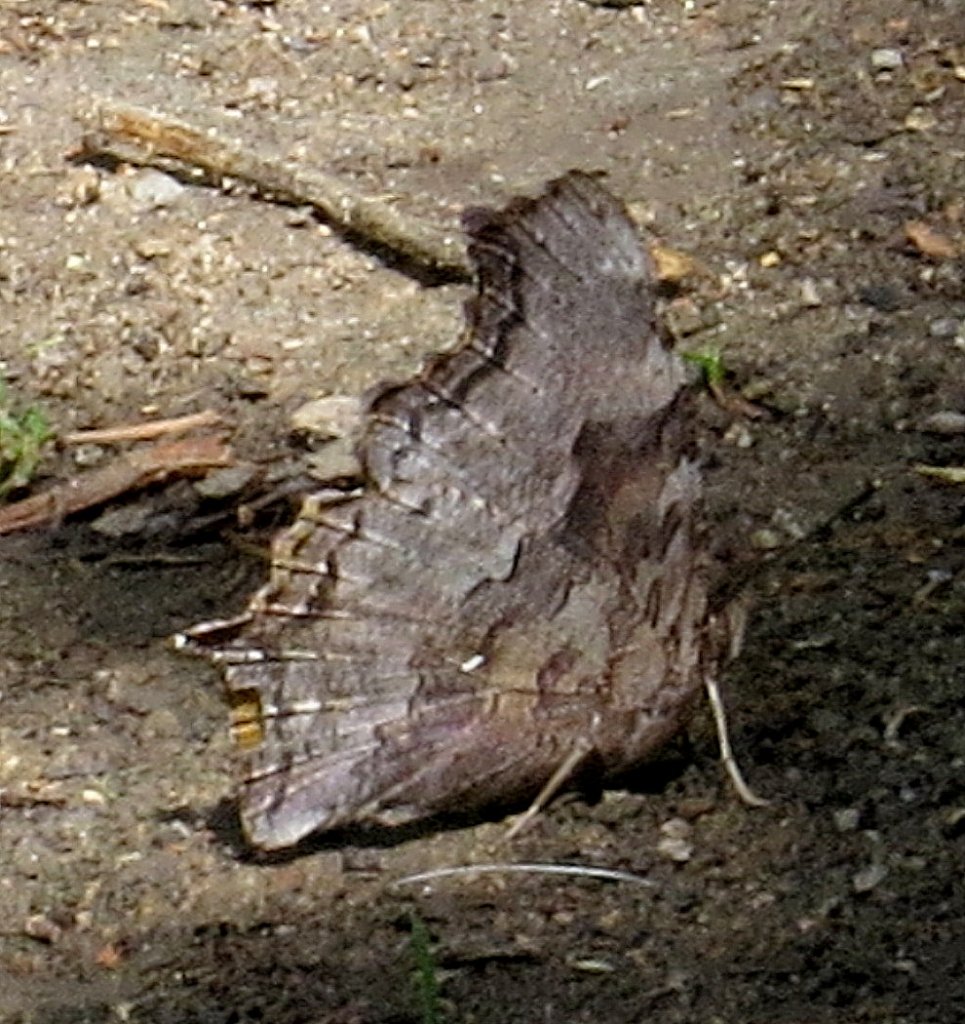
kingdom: Animalia
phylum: Arthropoda
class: Insecta
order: Lepidoptera
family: Nymphalidae
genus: Polygonia
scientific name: Polygonia vaualbum
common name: Compton Tortoiseshell
